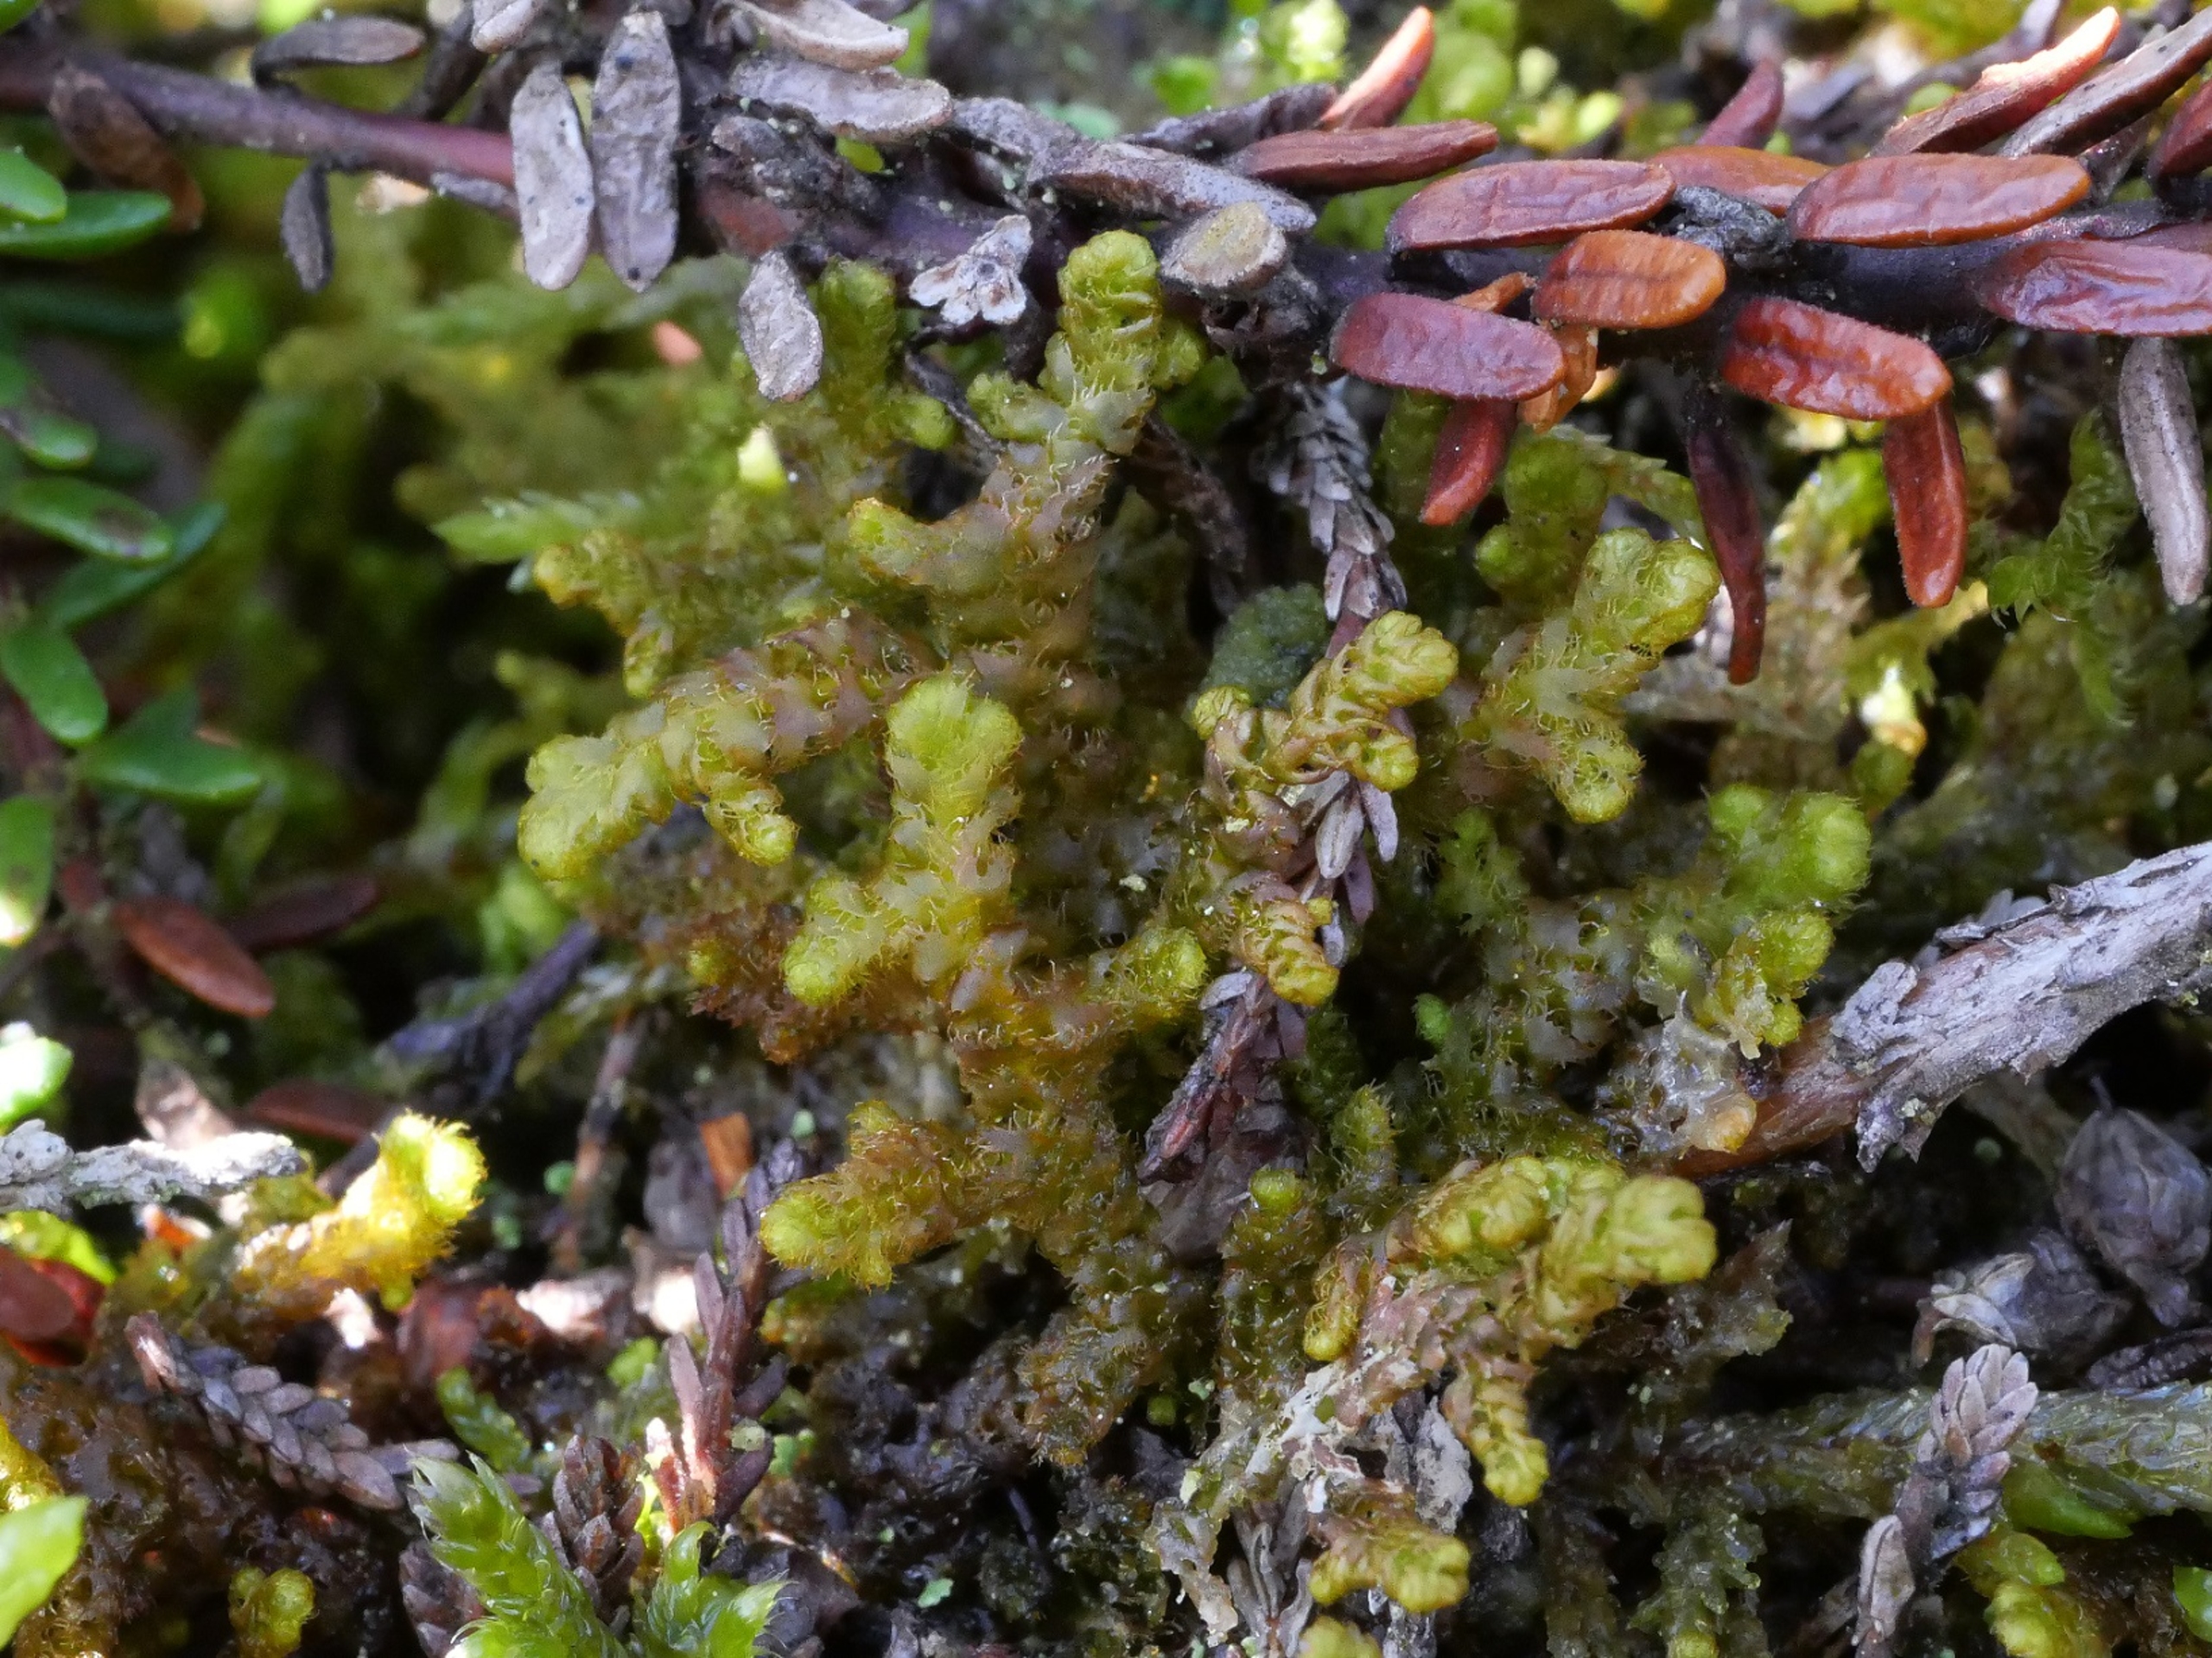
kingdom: Plantae
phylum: Marchantiophyta
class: Jungermanniopsida
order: Ptilidiales
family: Ptilidiaceae
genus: Ptilidium
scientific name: Ptilidium ciliare
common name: Almindelig frynsemos
